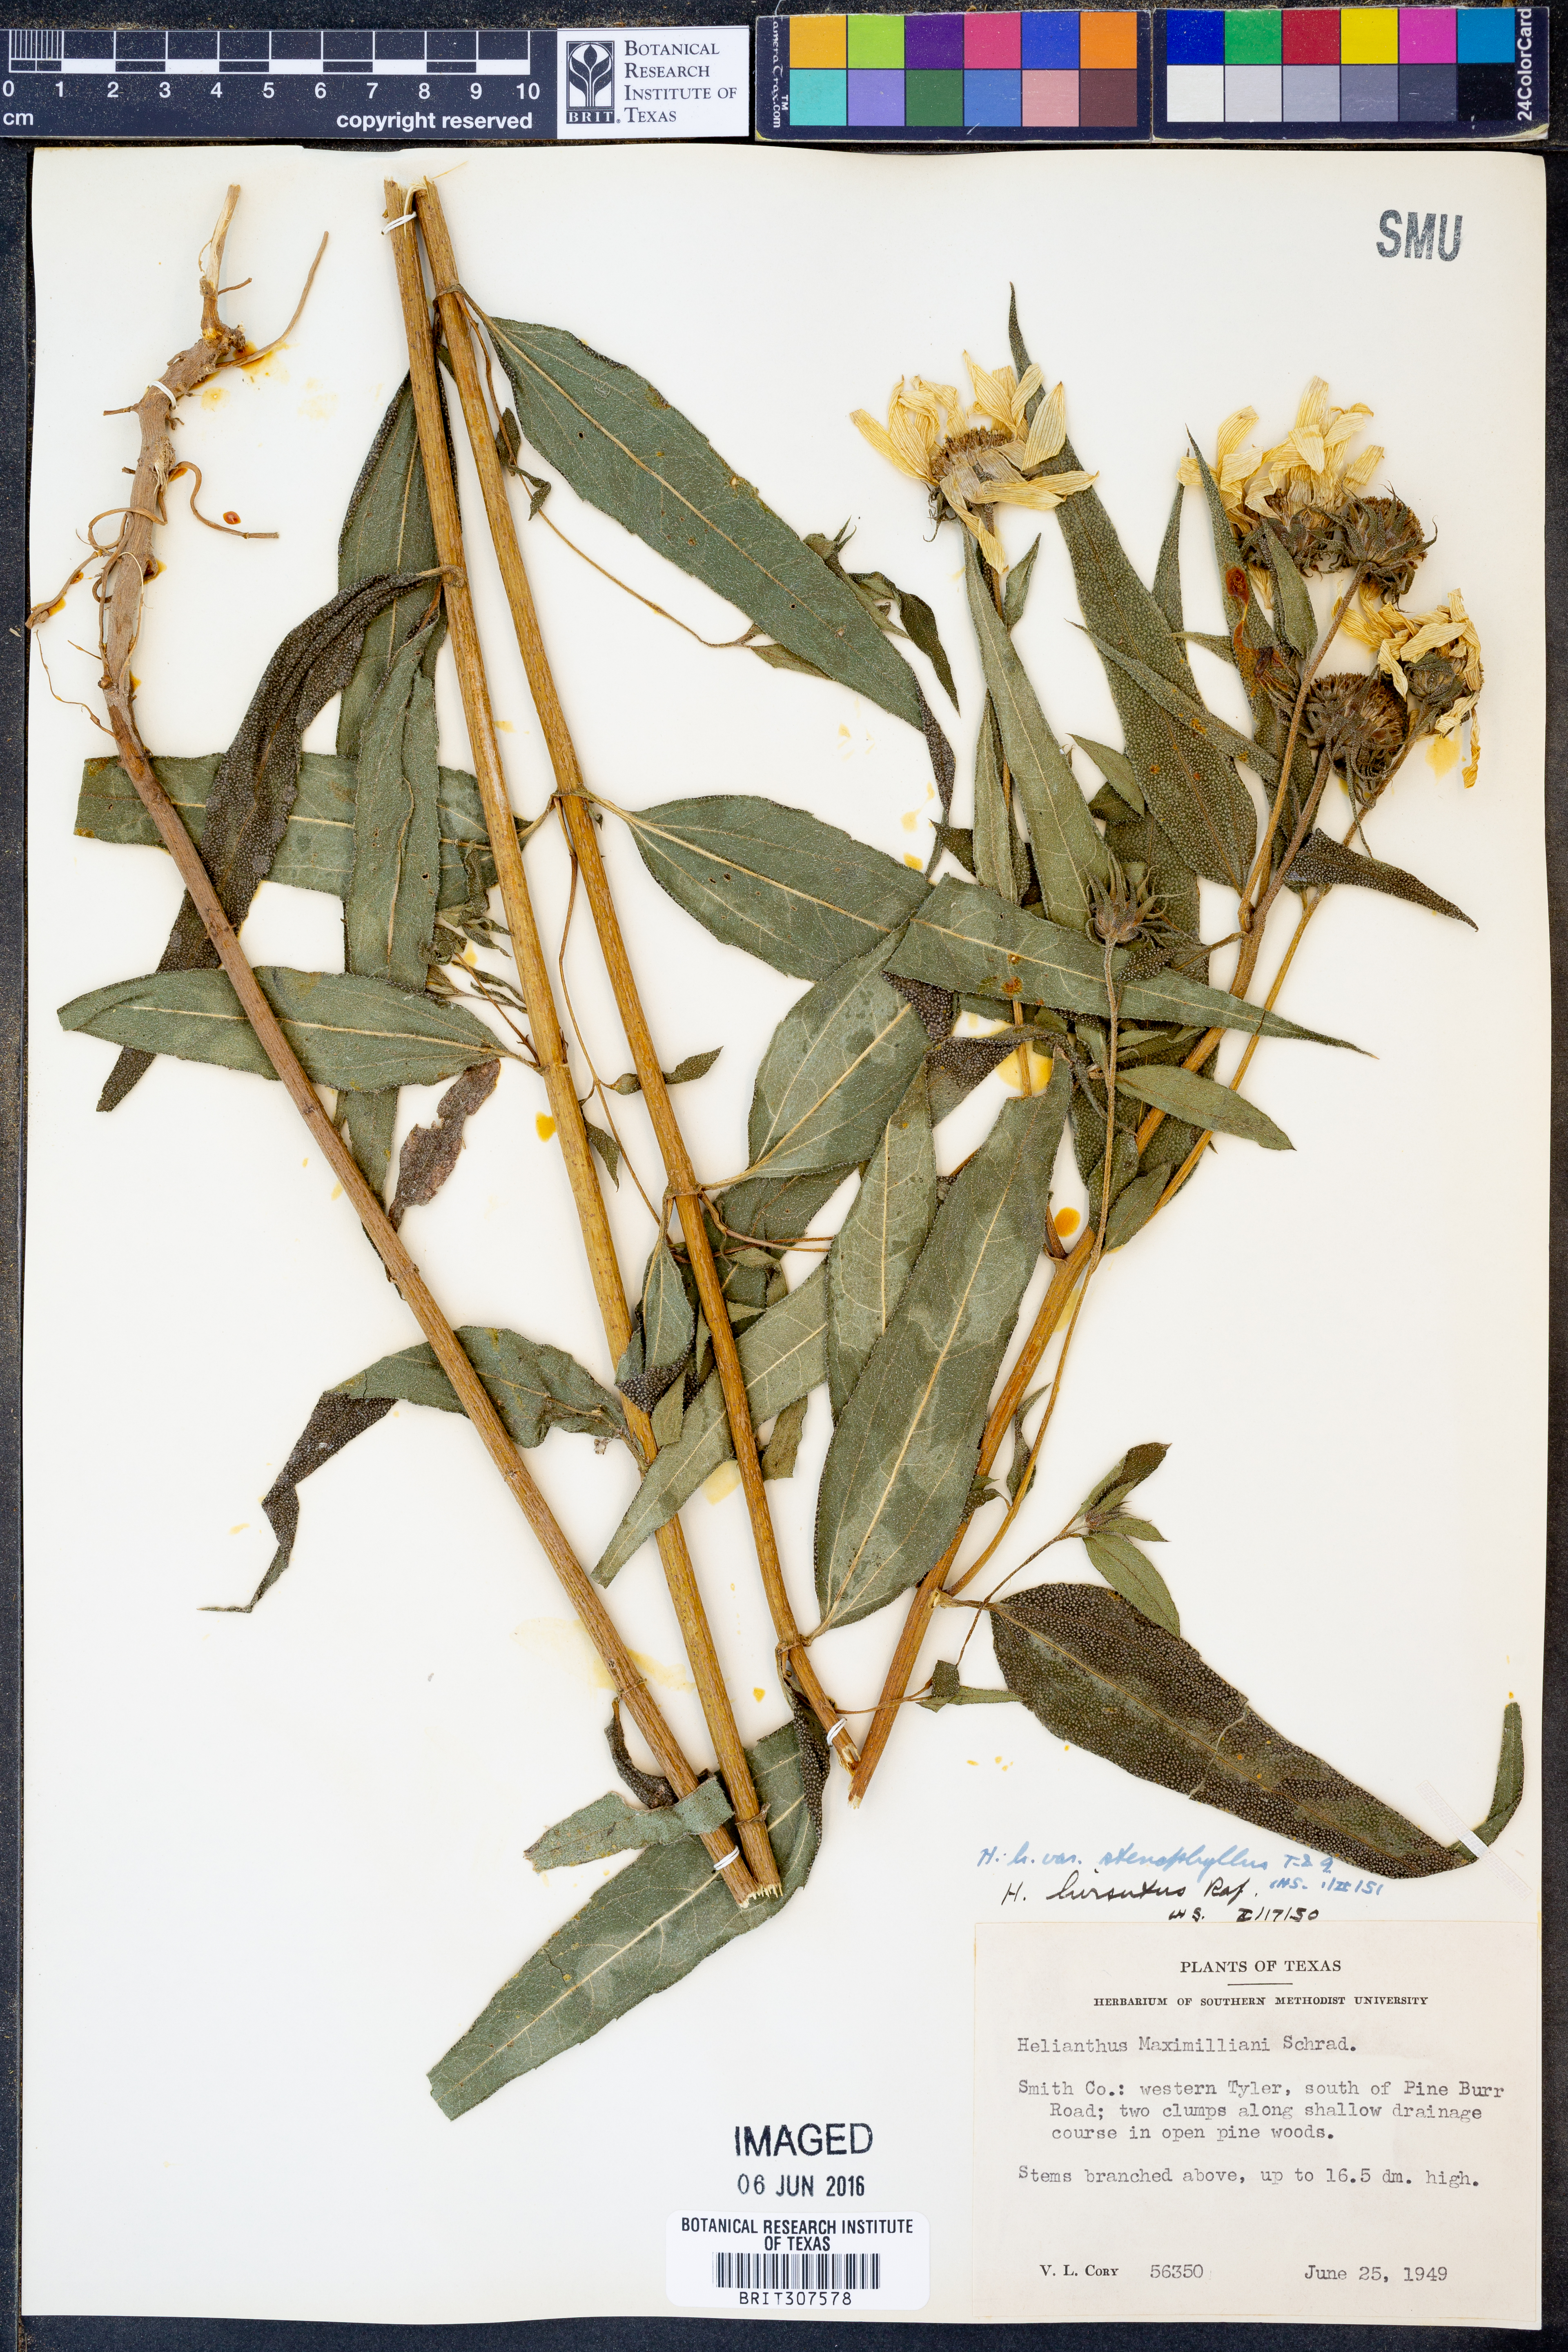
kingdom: Plantae
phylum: Tracheophyta
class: Magnoliopsida
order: Asterales
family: Asteraceae
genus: Helianthus
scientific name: Helianthus hirsutus
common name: Hairy sunflower
